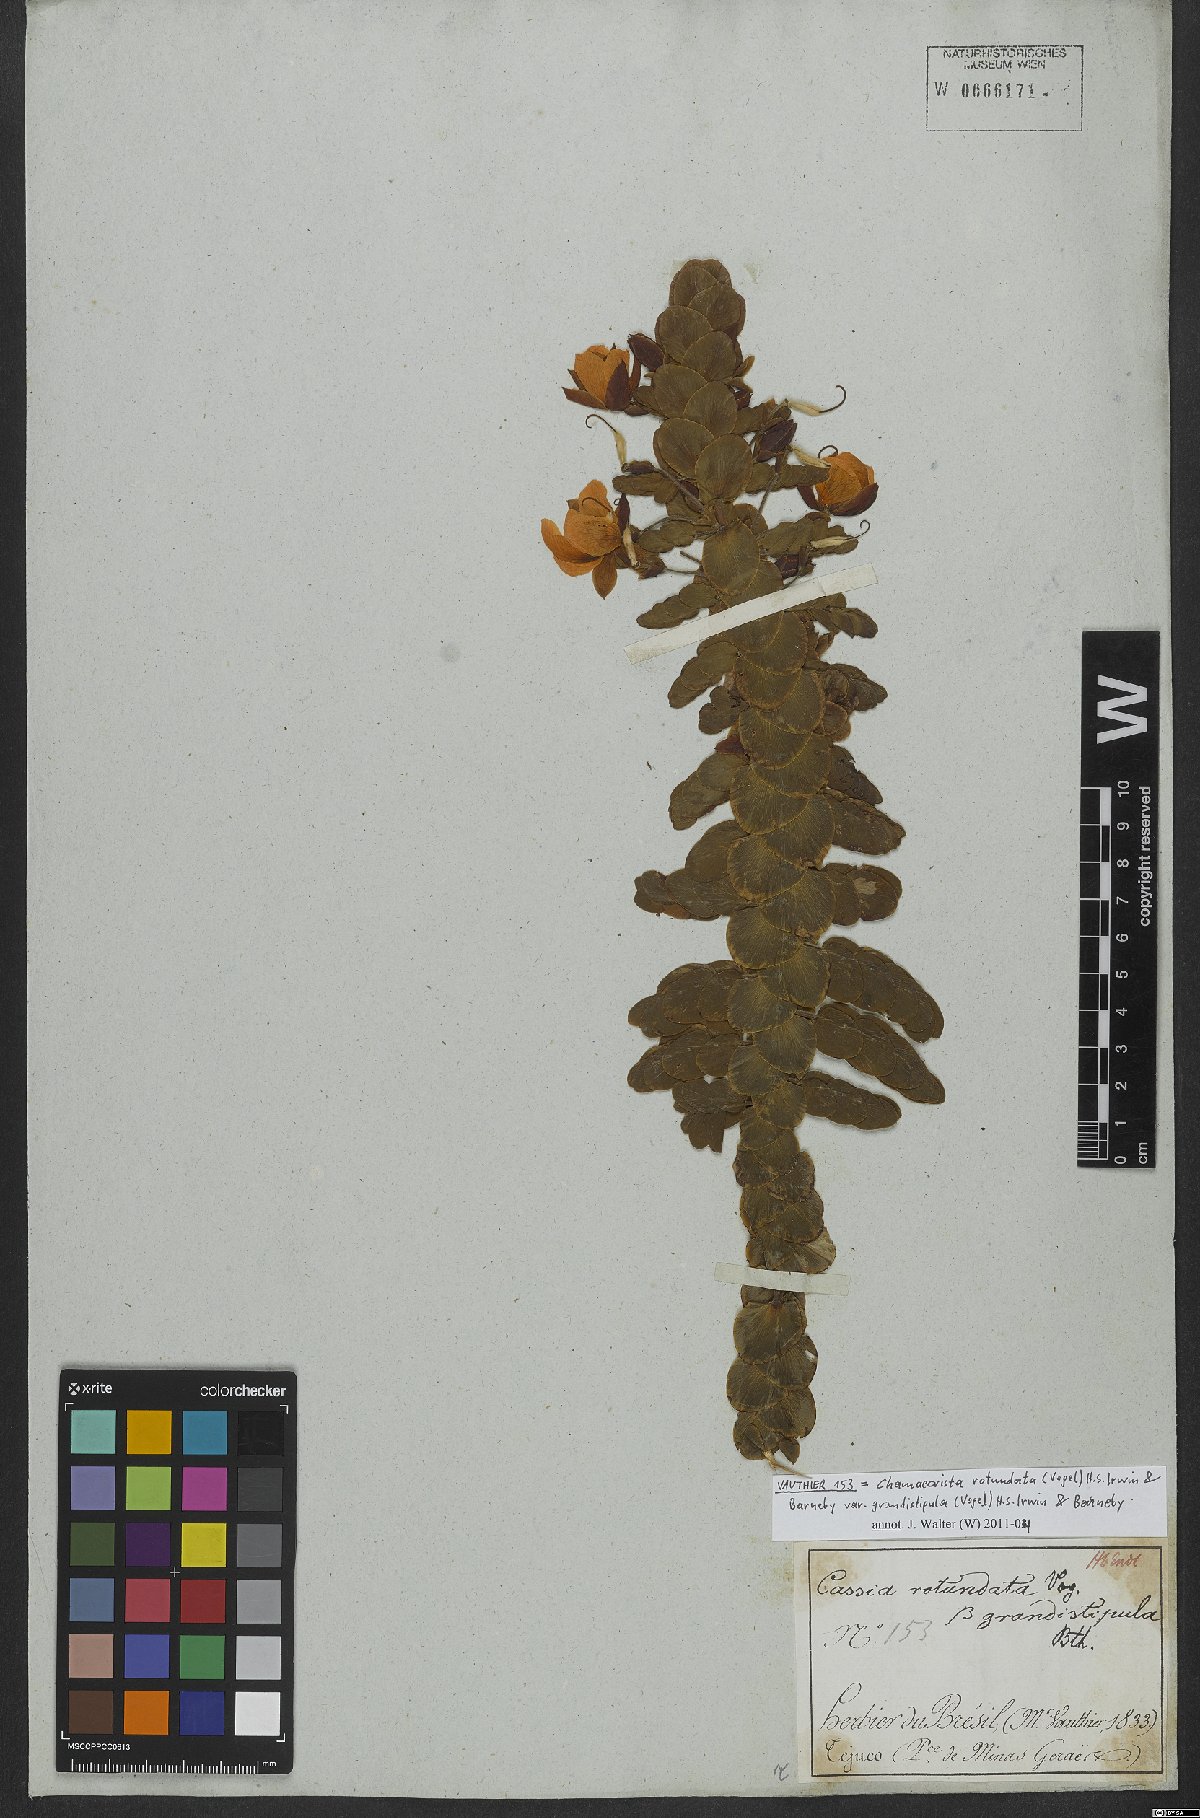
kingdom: Plantae
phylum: Tracheophyta
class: Magnoliopsida
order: Fabales
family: Fabaceae
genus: Chamaecrista
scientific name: Chamaecrista rotundata
